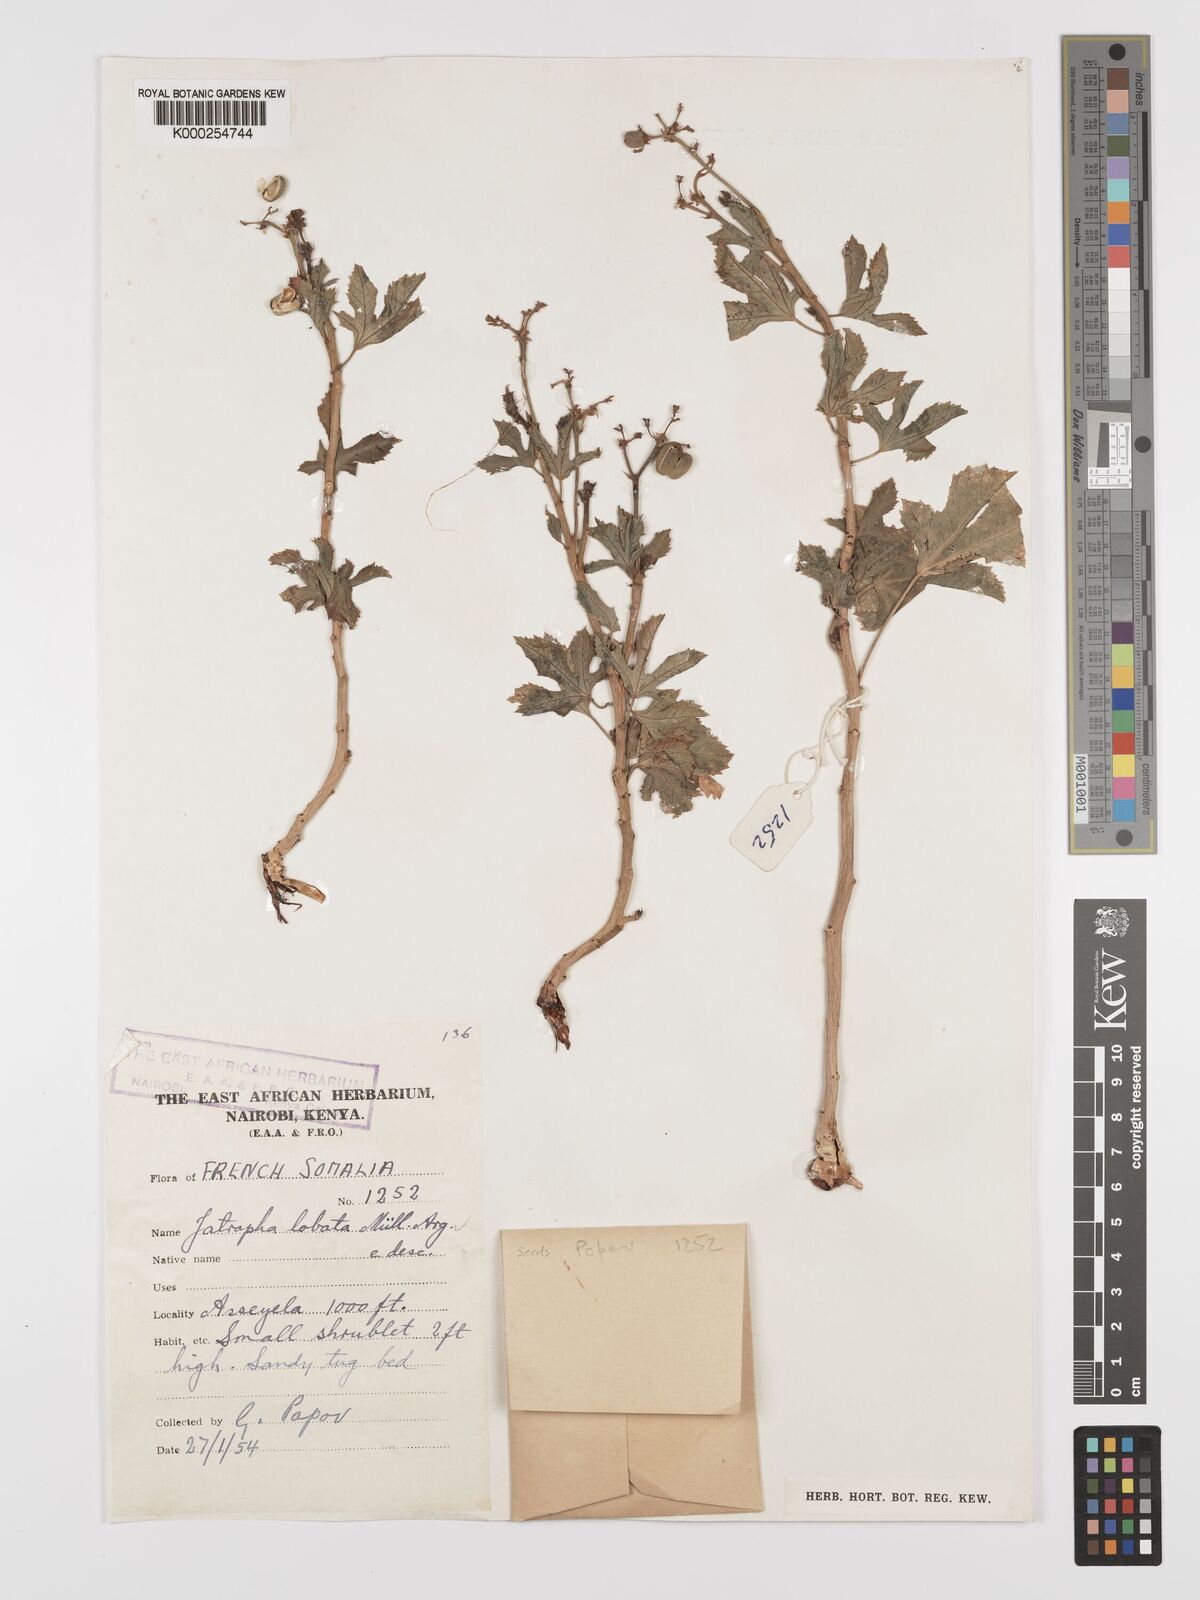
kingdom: Plantae
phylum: Tracheophyta
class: Magnoliopsida
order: Malpighiales
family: Euphorbiaceae
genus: Jatropha
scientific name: Jatropha glauca
